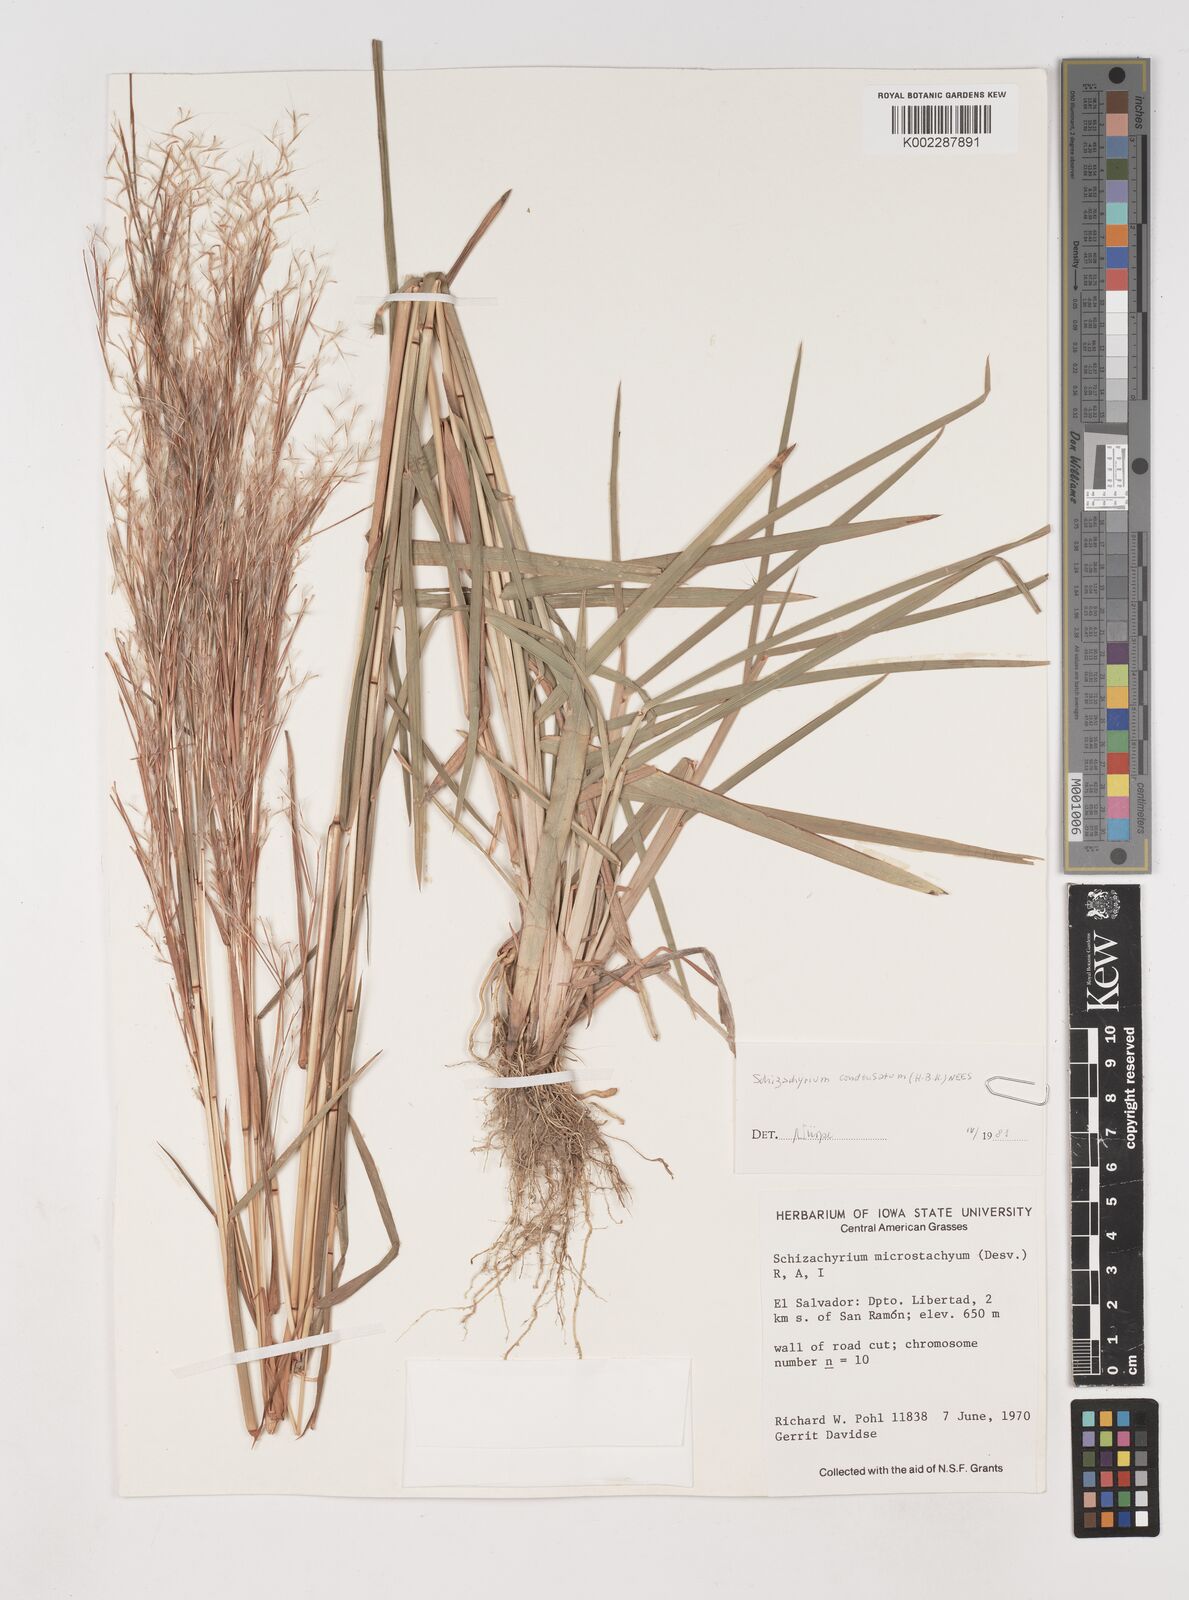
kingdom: Plantae
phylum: Tracheophyta
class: Liliopsida
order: Poales
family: Poaceae
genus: Schizachyrium
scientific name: Schizachyrium condensatum
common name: Bush beardgrass
